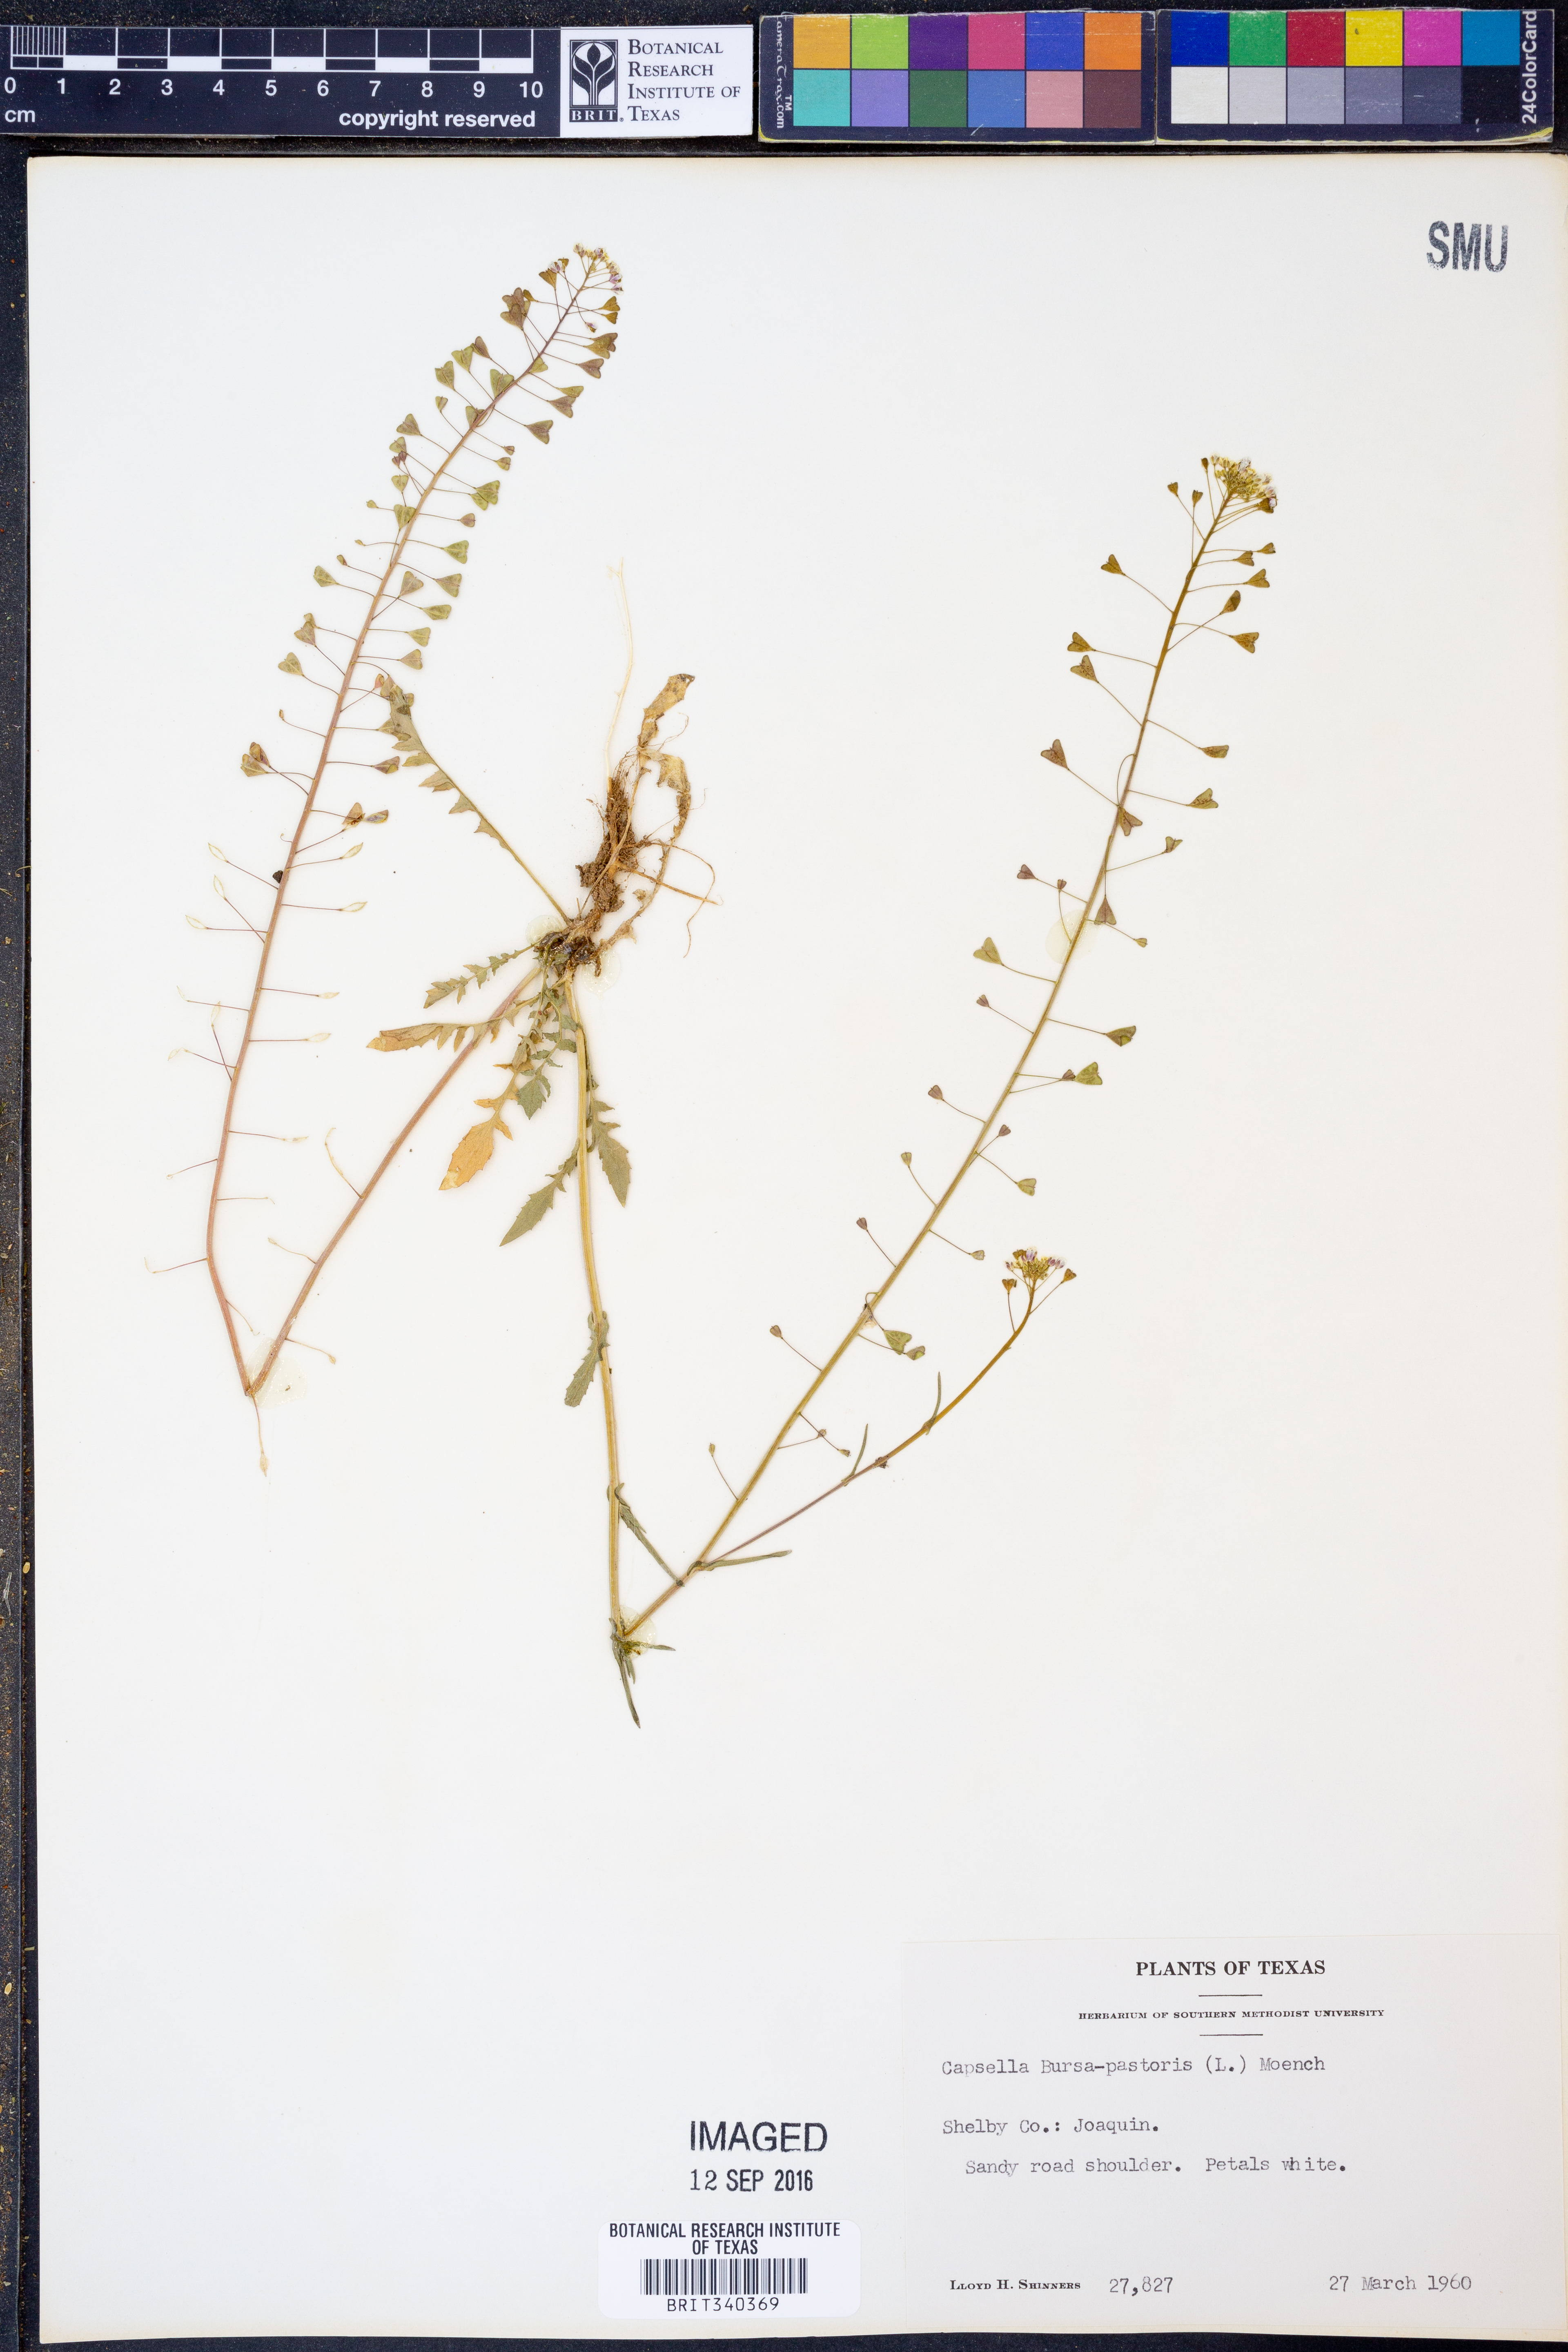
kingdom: Plantae
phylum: Tracheophyta
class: Magnoliopsida
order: Brassicales
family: Brassicaceae
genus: Capsella
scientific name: Capsella bursa-pastoris
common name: Shepherd's purse
